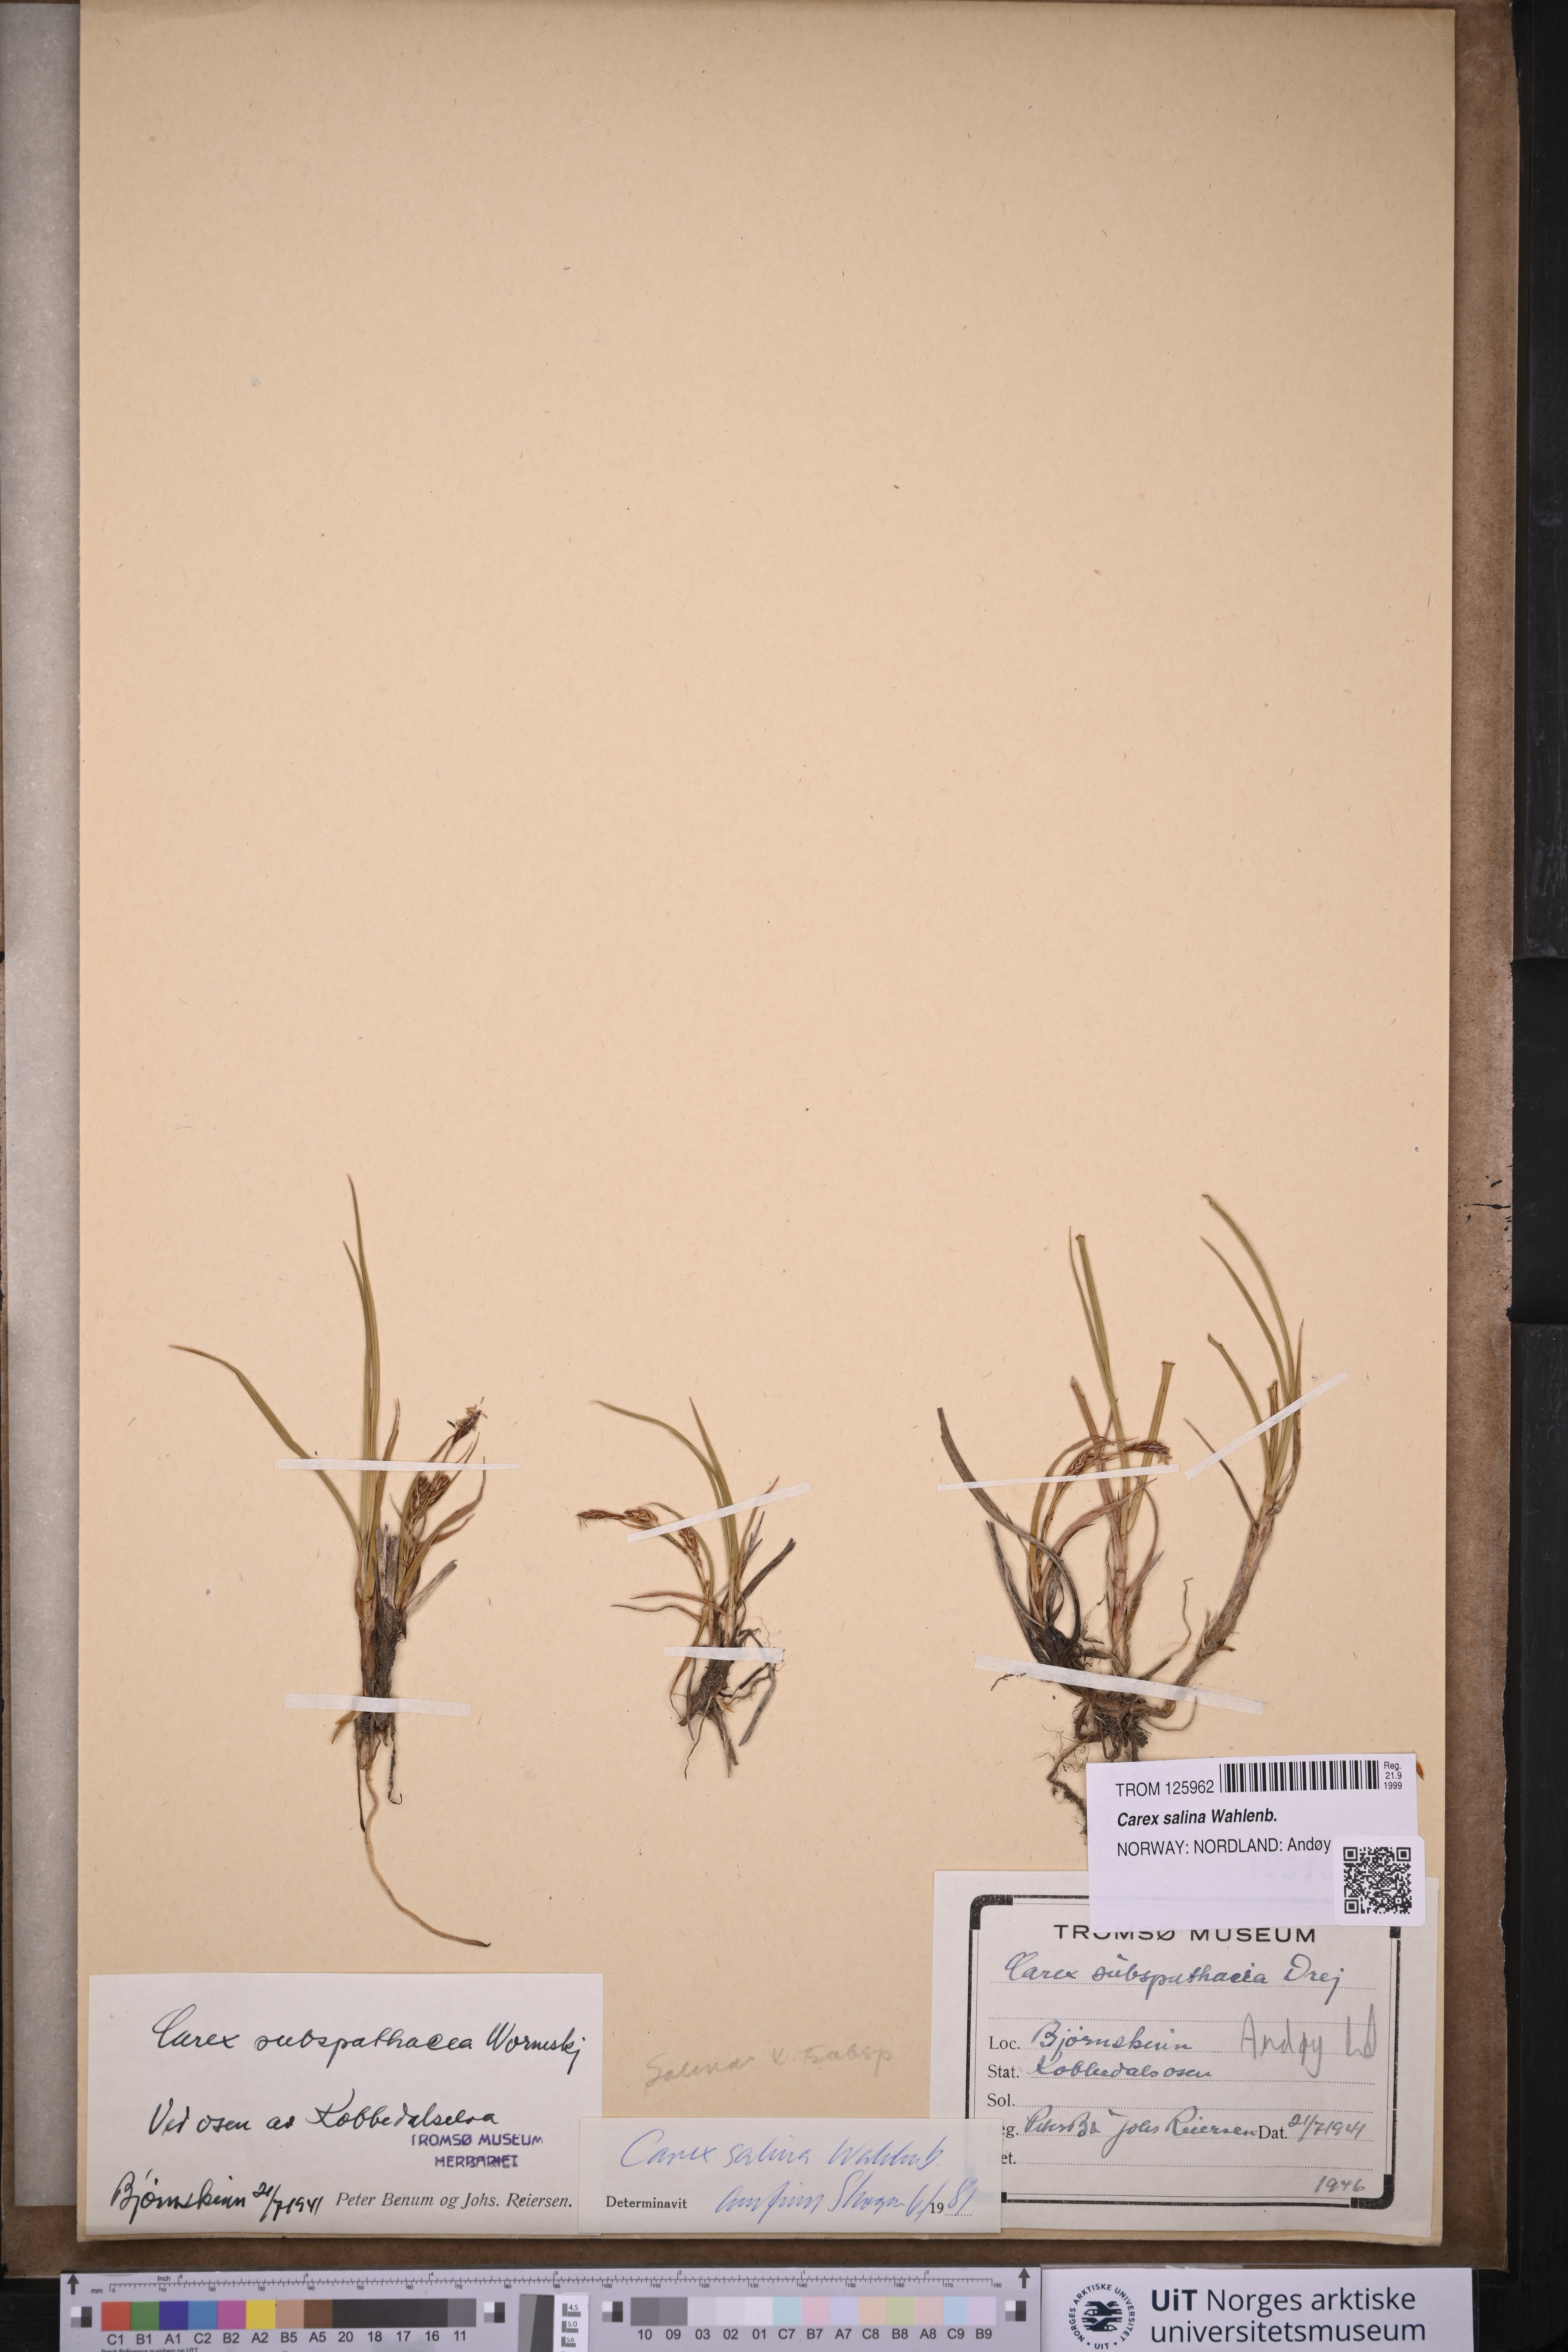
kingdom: Plantae
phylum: Tracheophyta
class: Liliopsida
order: Poales
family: Cyperaceae
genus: Carex
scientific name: Carex salina
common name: Saltmarsh sedge
